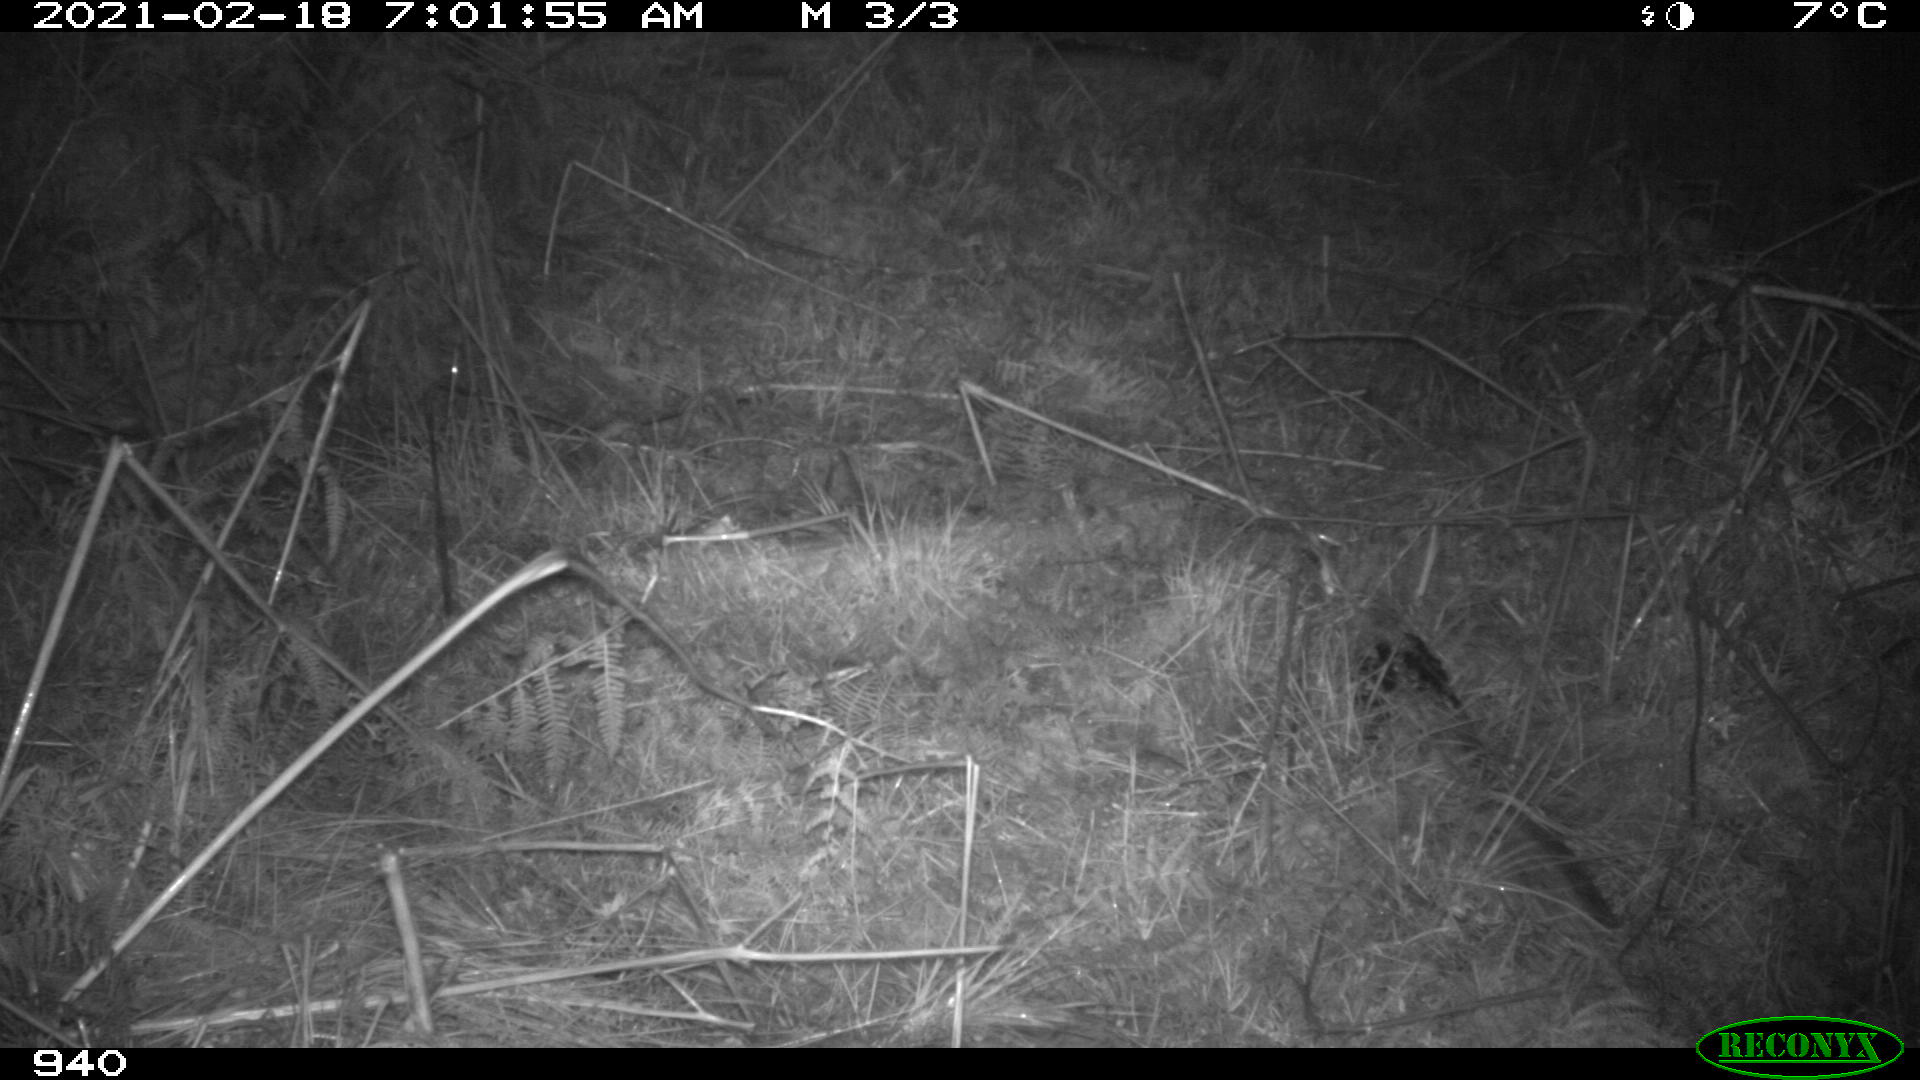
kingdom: Animalia
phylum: Chordata
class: Mammalia
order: Carnivora
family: Canidae
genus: Vulpes
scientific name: Vulpes vulpes
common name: Red fox
